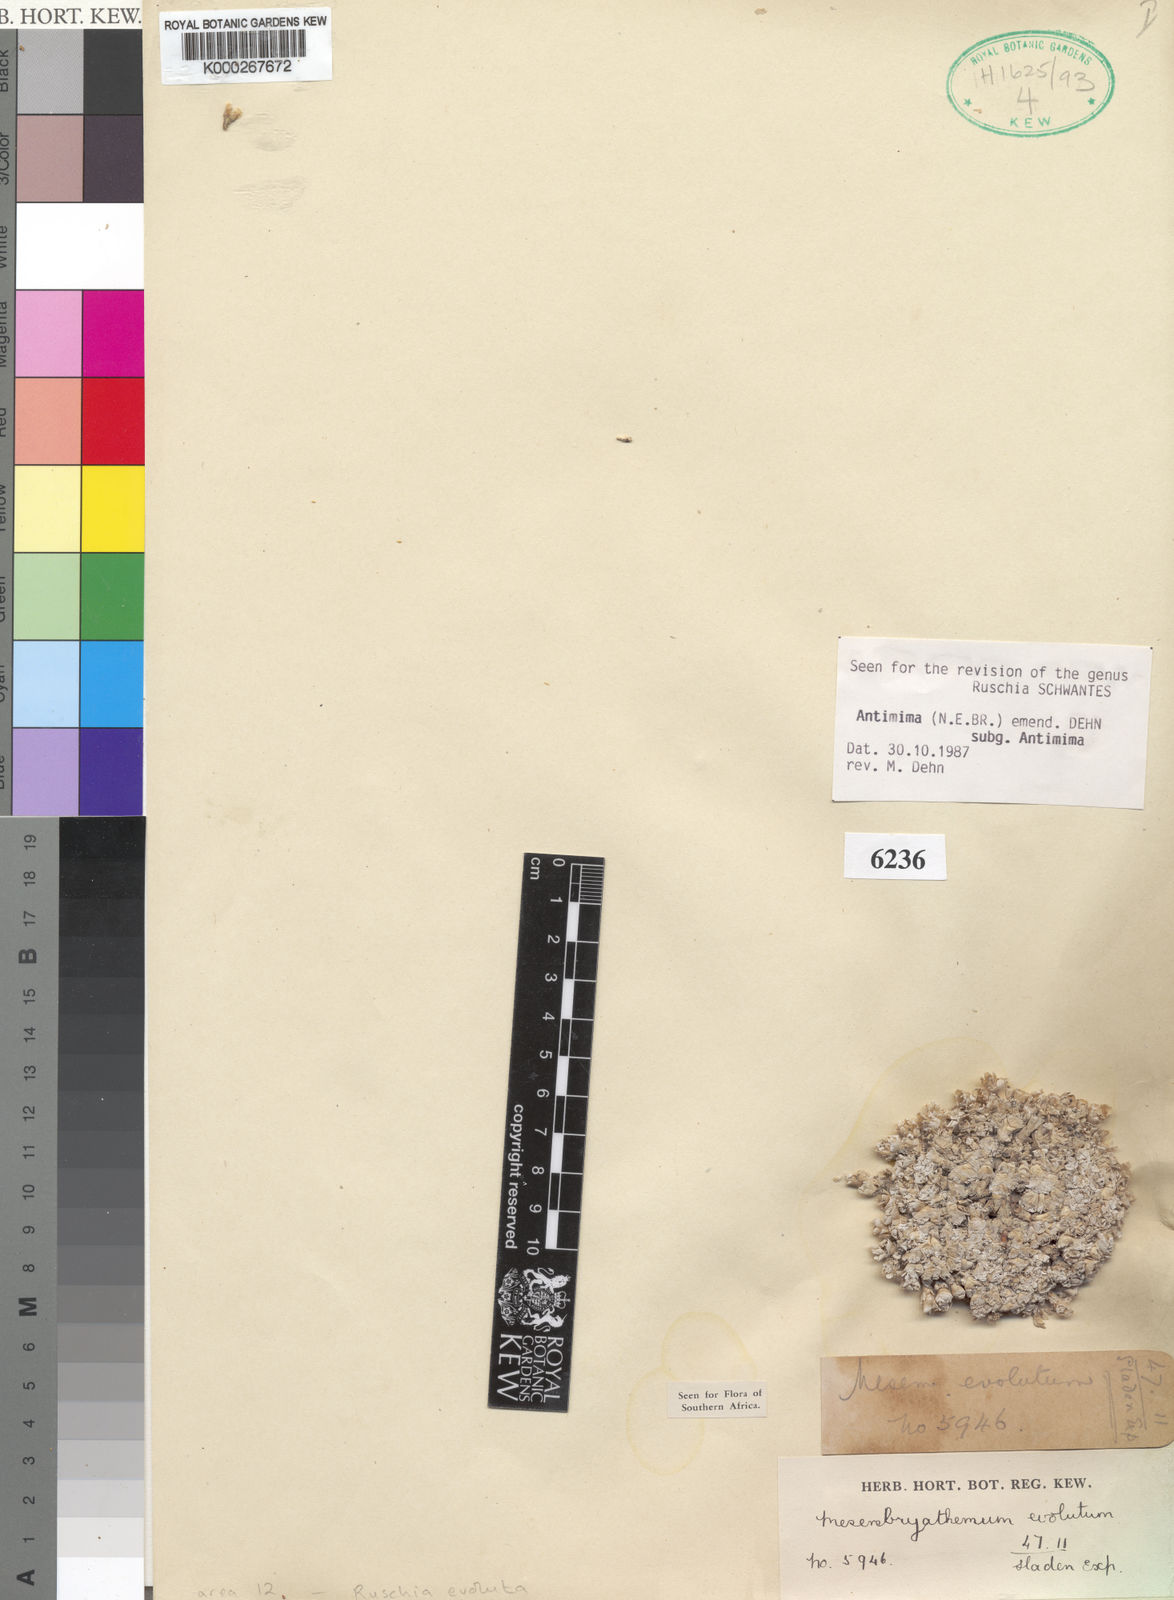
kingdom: Plantae
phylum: Tracheophyta
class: Magnoliopsida
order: Caryophyllales
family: Aizoaceae
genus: Antimima
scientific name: Antimima evoluta
